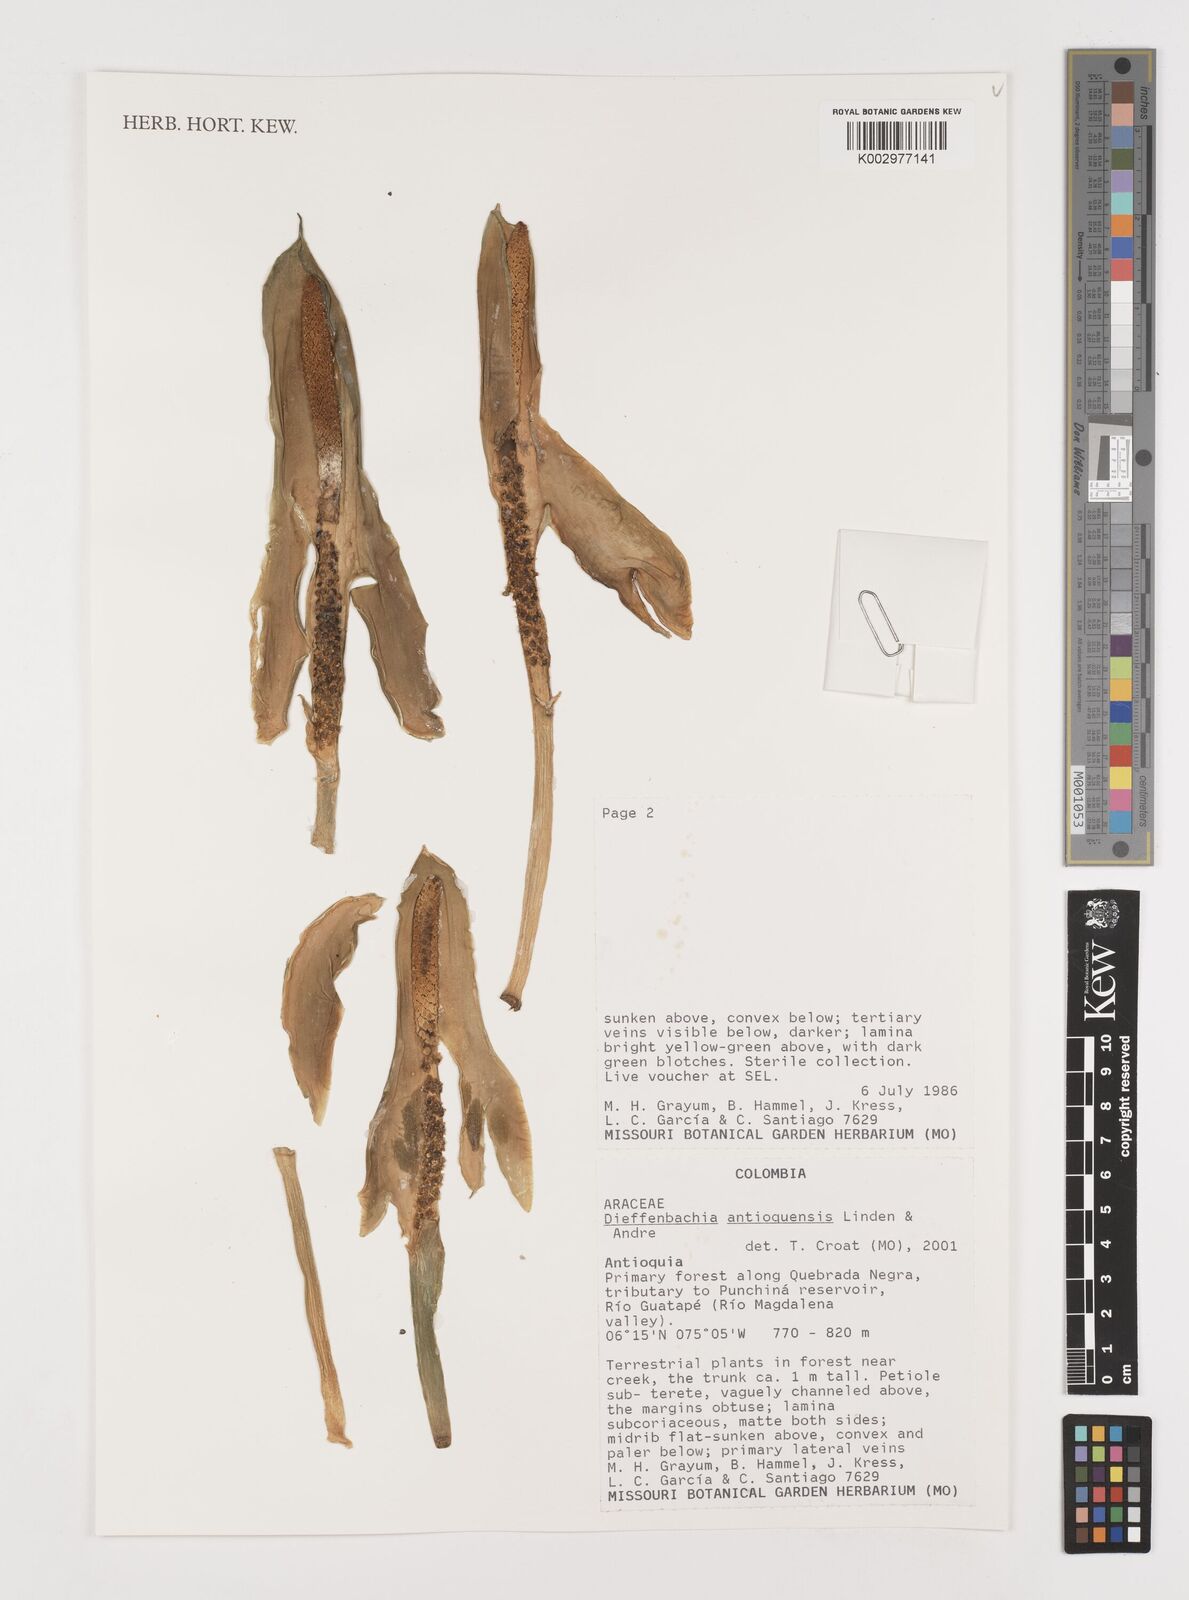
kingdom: Plantae
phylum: Tracheophyta
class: Liliopsida
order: Alismatales
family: Araceae
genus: Dieffenbachia
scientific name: Dieffenbachia antioquensis
